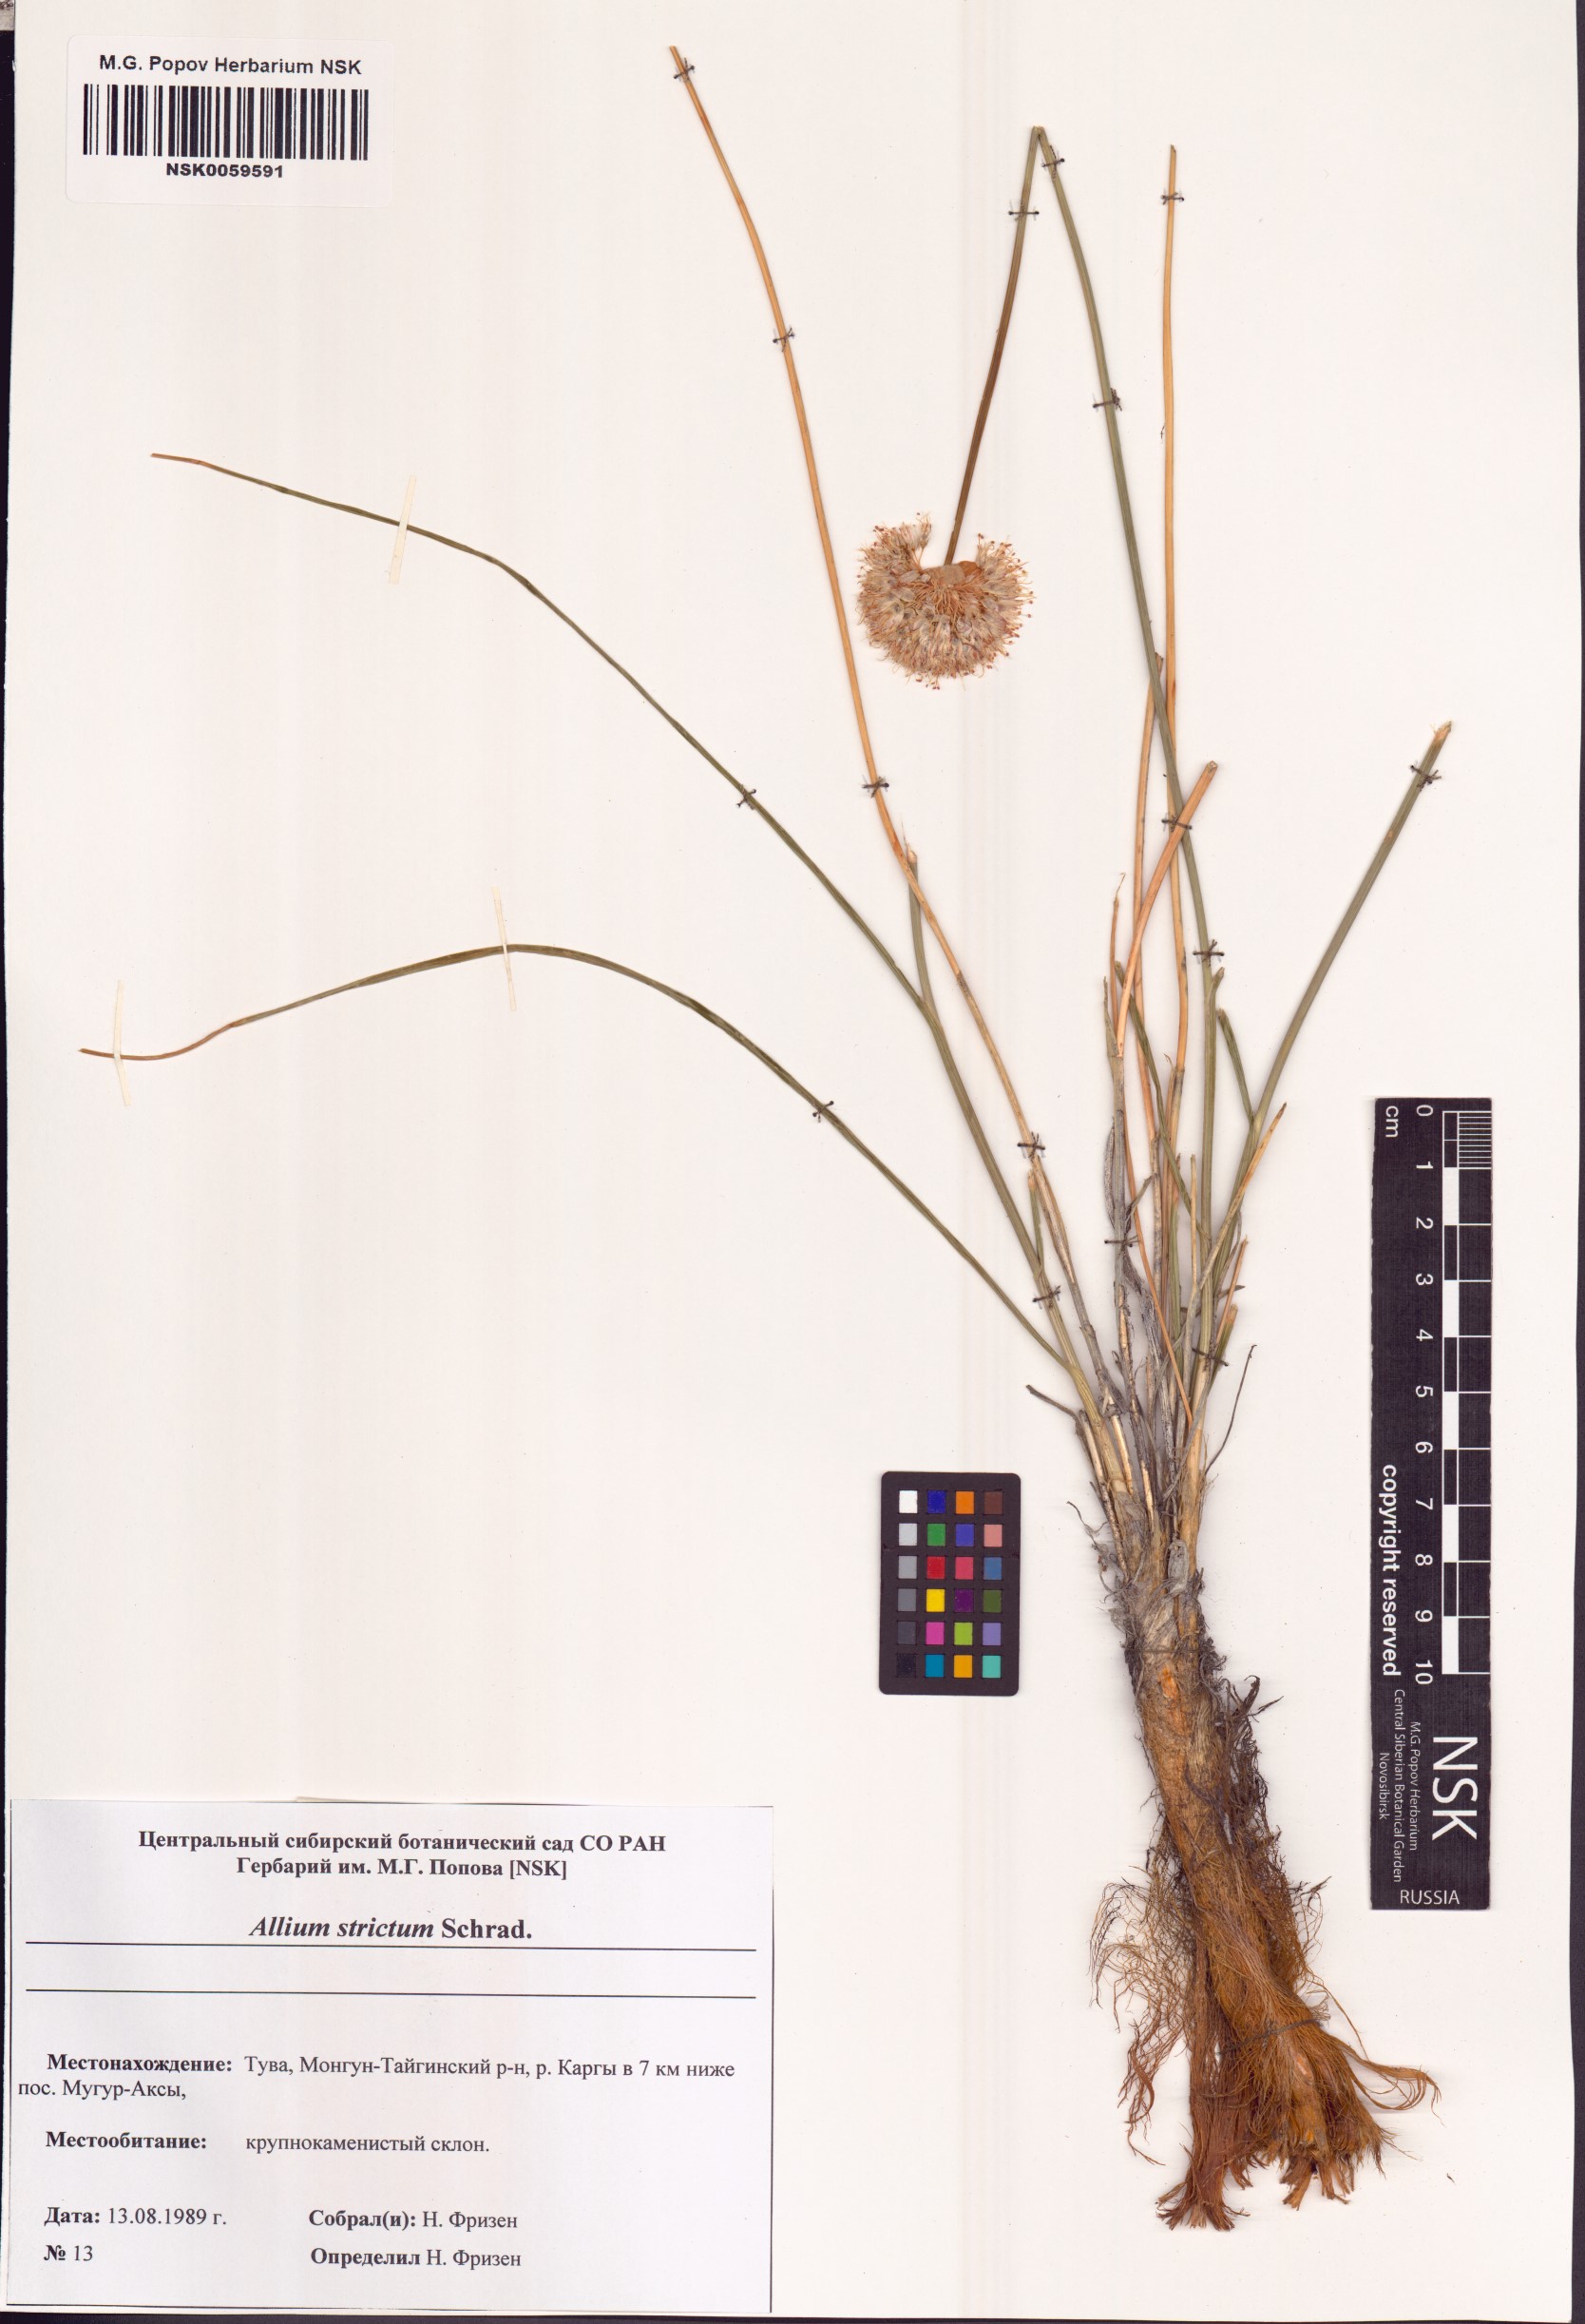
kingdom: Plantae
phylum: Tracheophyta
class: Liliopsida
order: Asparagales
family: Amaryllidaceae
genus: Allium
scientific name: Allium strictum
